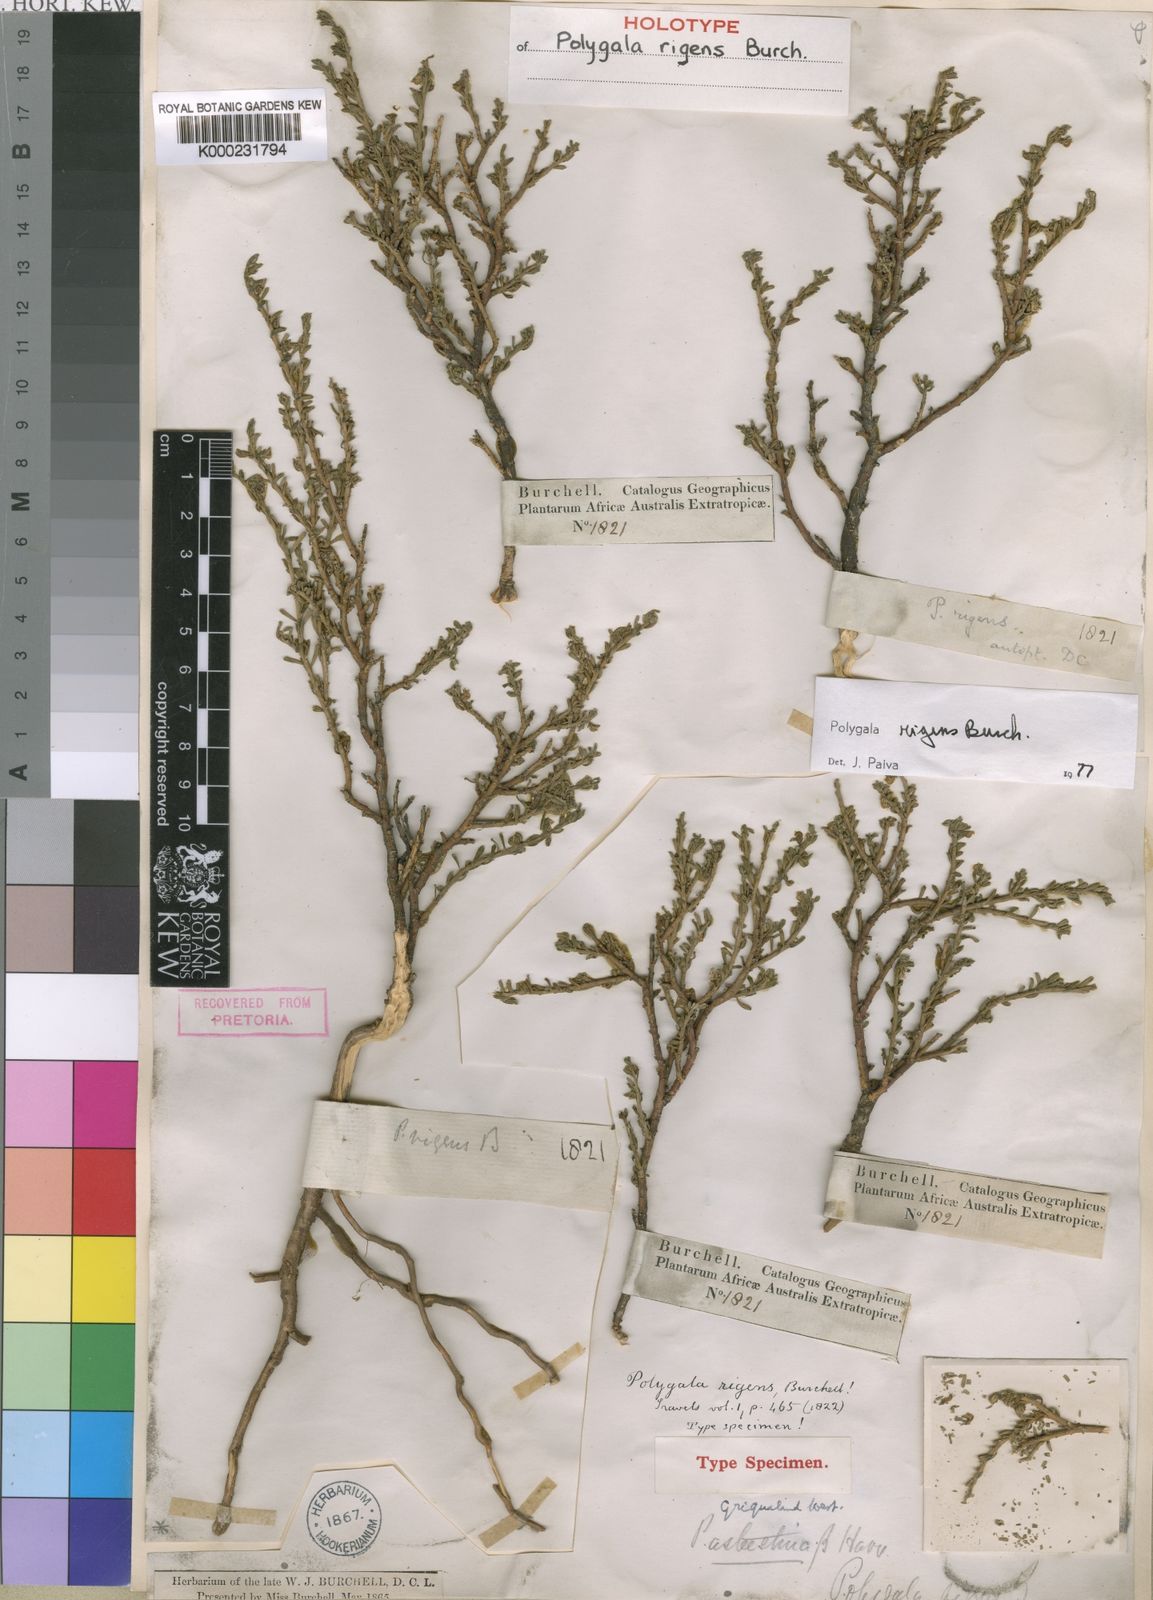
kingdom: Plantae
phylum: Tracheophyta
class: Magnoliopsida
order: Fabales
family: Polygalaceae
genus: Polygala
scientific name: Polygala rigens
